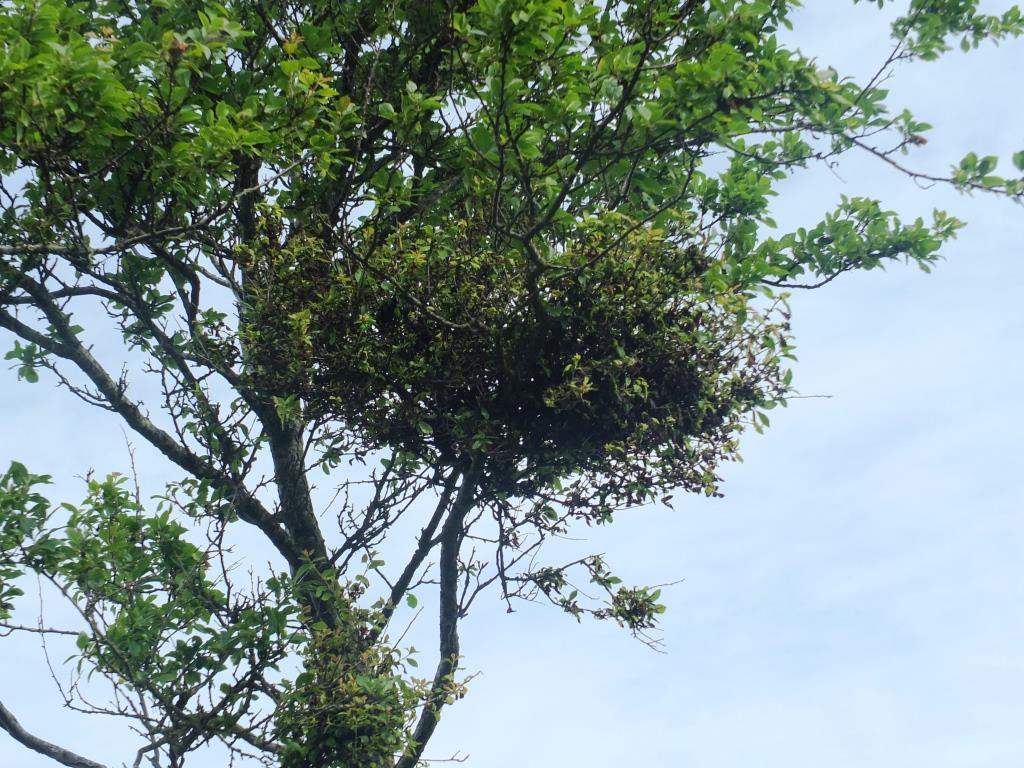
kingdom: Fungi
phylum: Ascomycota
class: Taphrinomycetes
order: Taphrinales
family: Taphrinaceae
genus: Taphrina
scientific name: Taphrina pruni
